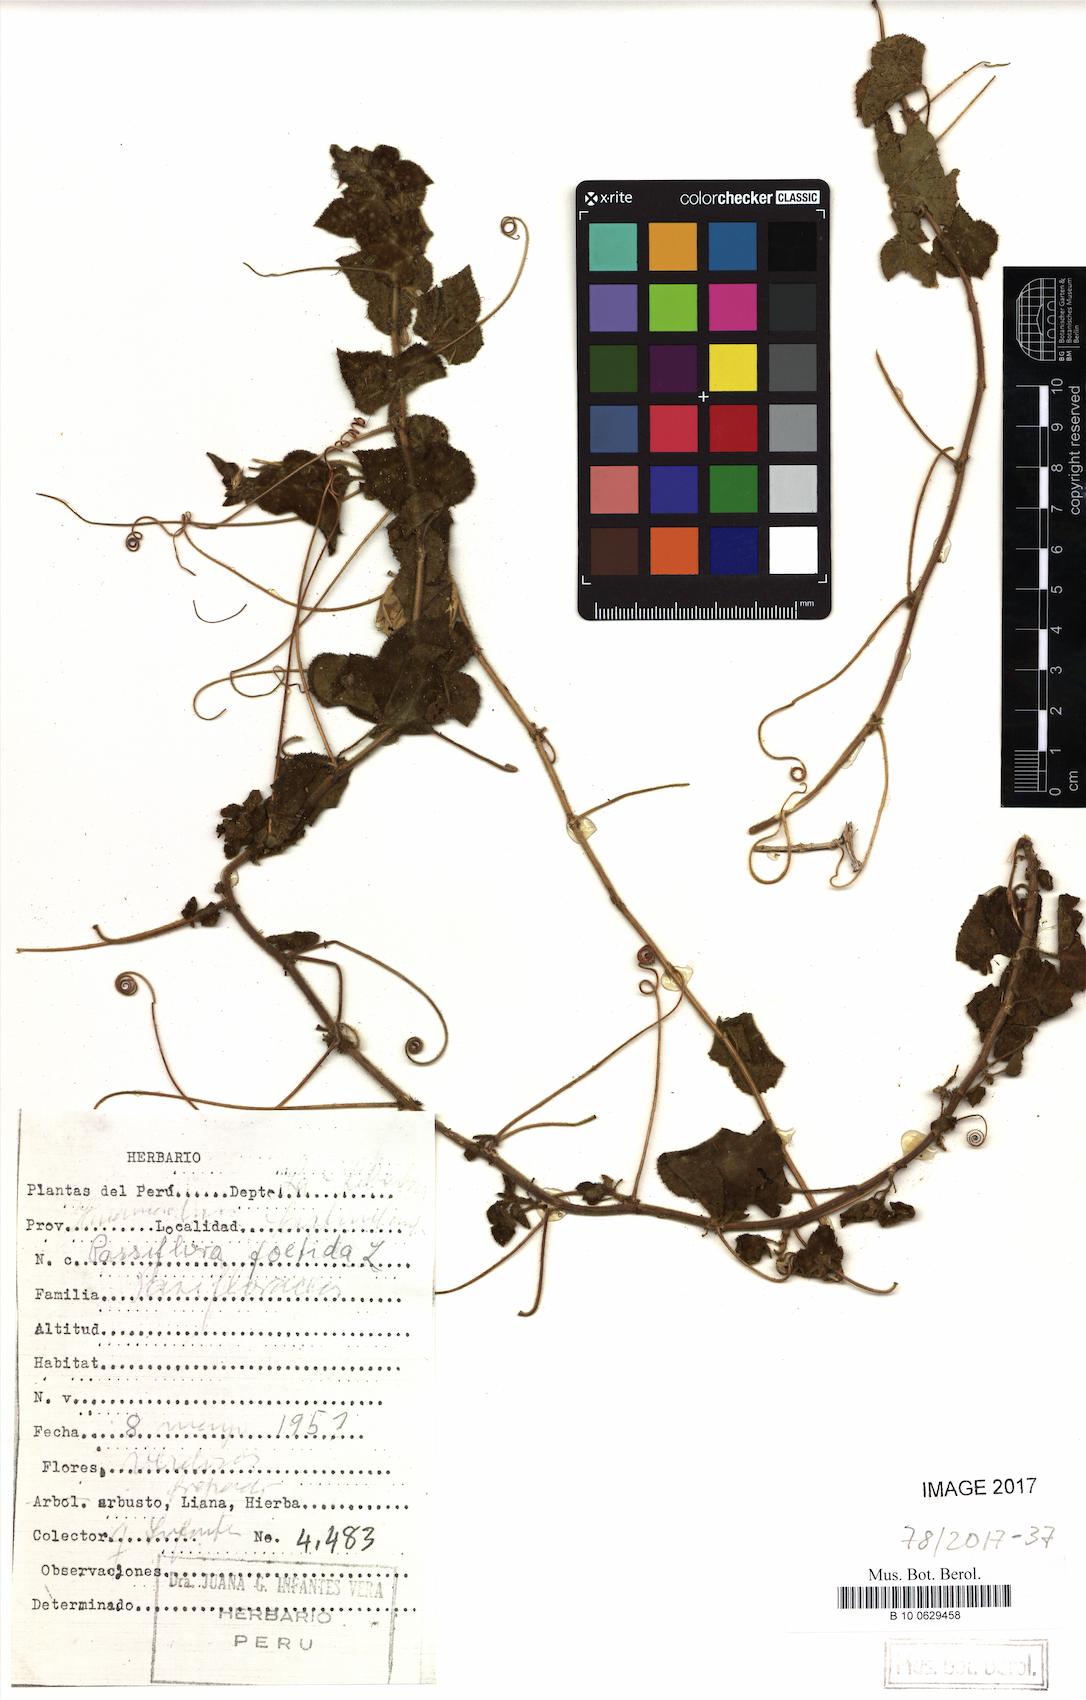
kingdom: Plantae
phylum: Tracheophyta
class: Magnoliopsida
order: Malpighiales
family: Passifloraceae
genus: Passiflora
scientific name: Passiflora foetida
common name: Fetid passionflower
